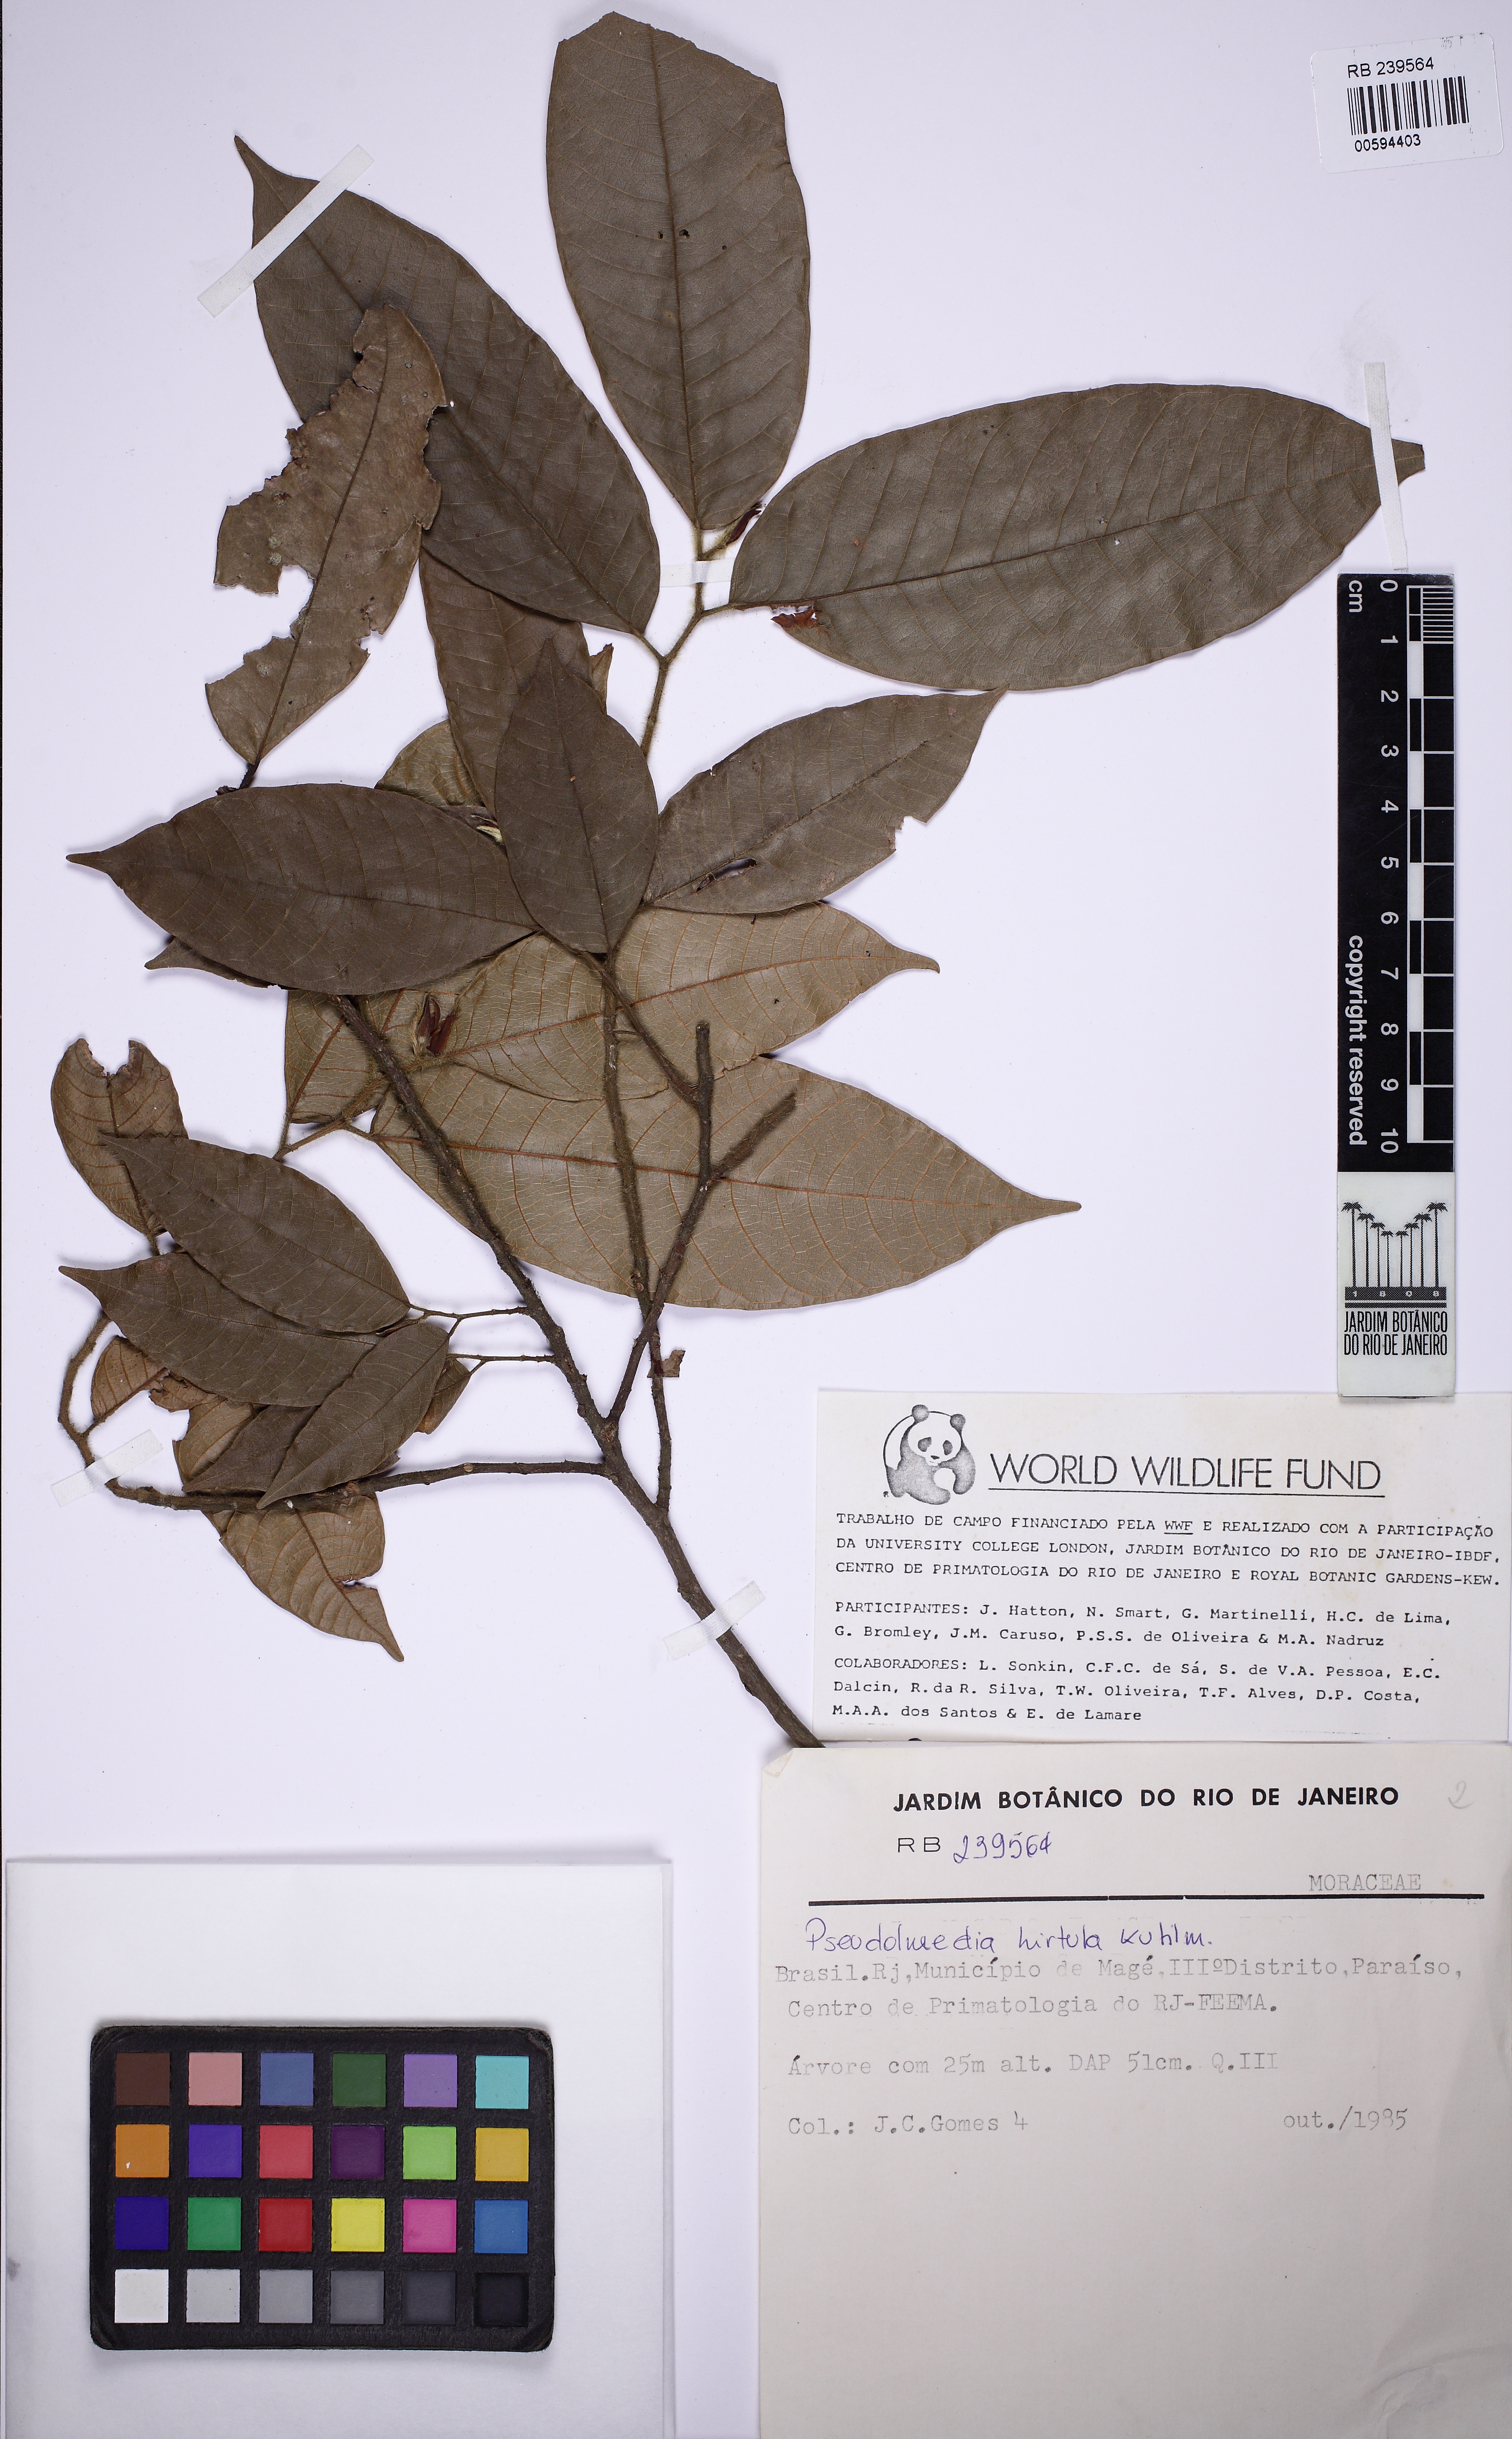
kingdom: Plantae
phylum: Tracheophyta
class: Magnoliopsida
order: Rosales
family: Moraceae
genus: Pseudolmedia
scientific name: Pseudolmedia hirtula
